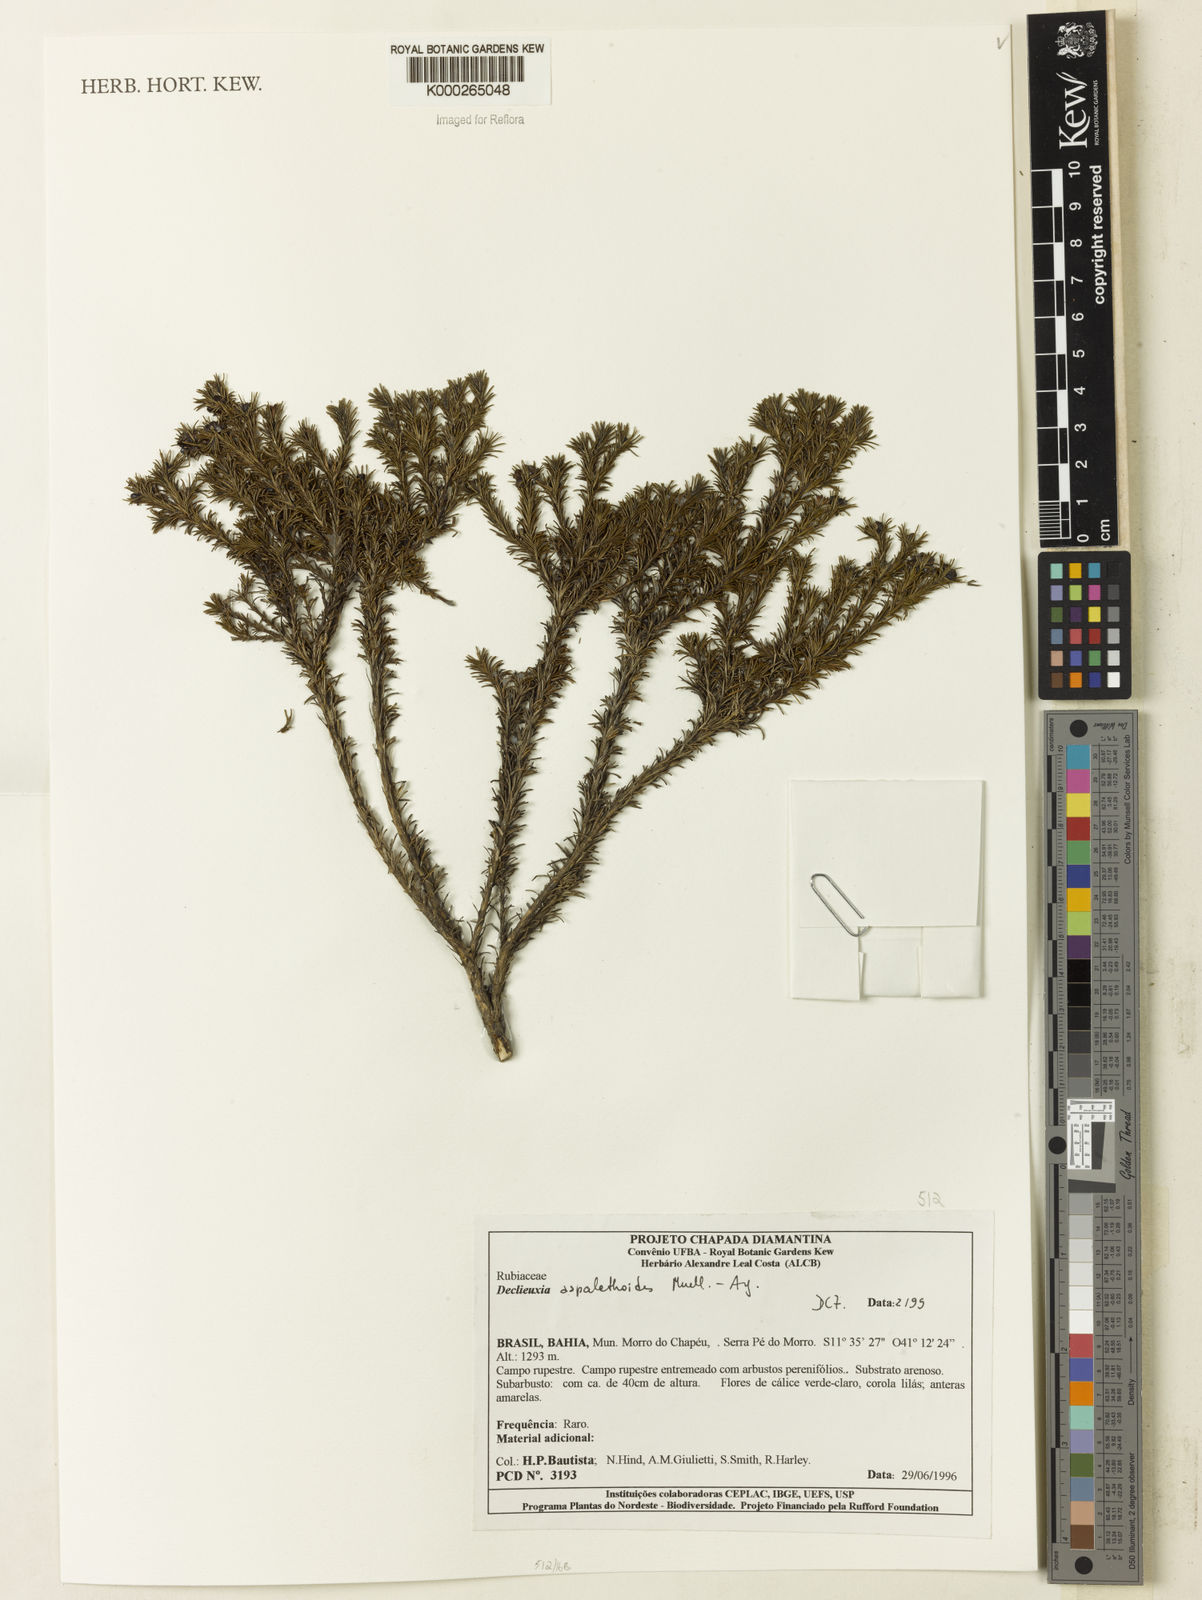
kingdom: Plantae
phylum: Tracheophyta
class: Magnoliopsida
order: Gentianales
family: Rubiaceae
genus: Declieuxia
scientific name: Declieuxia
